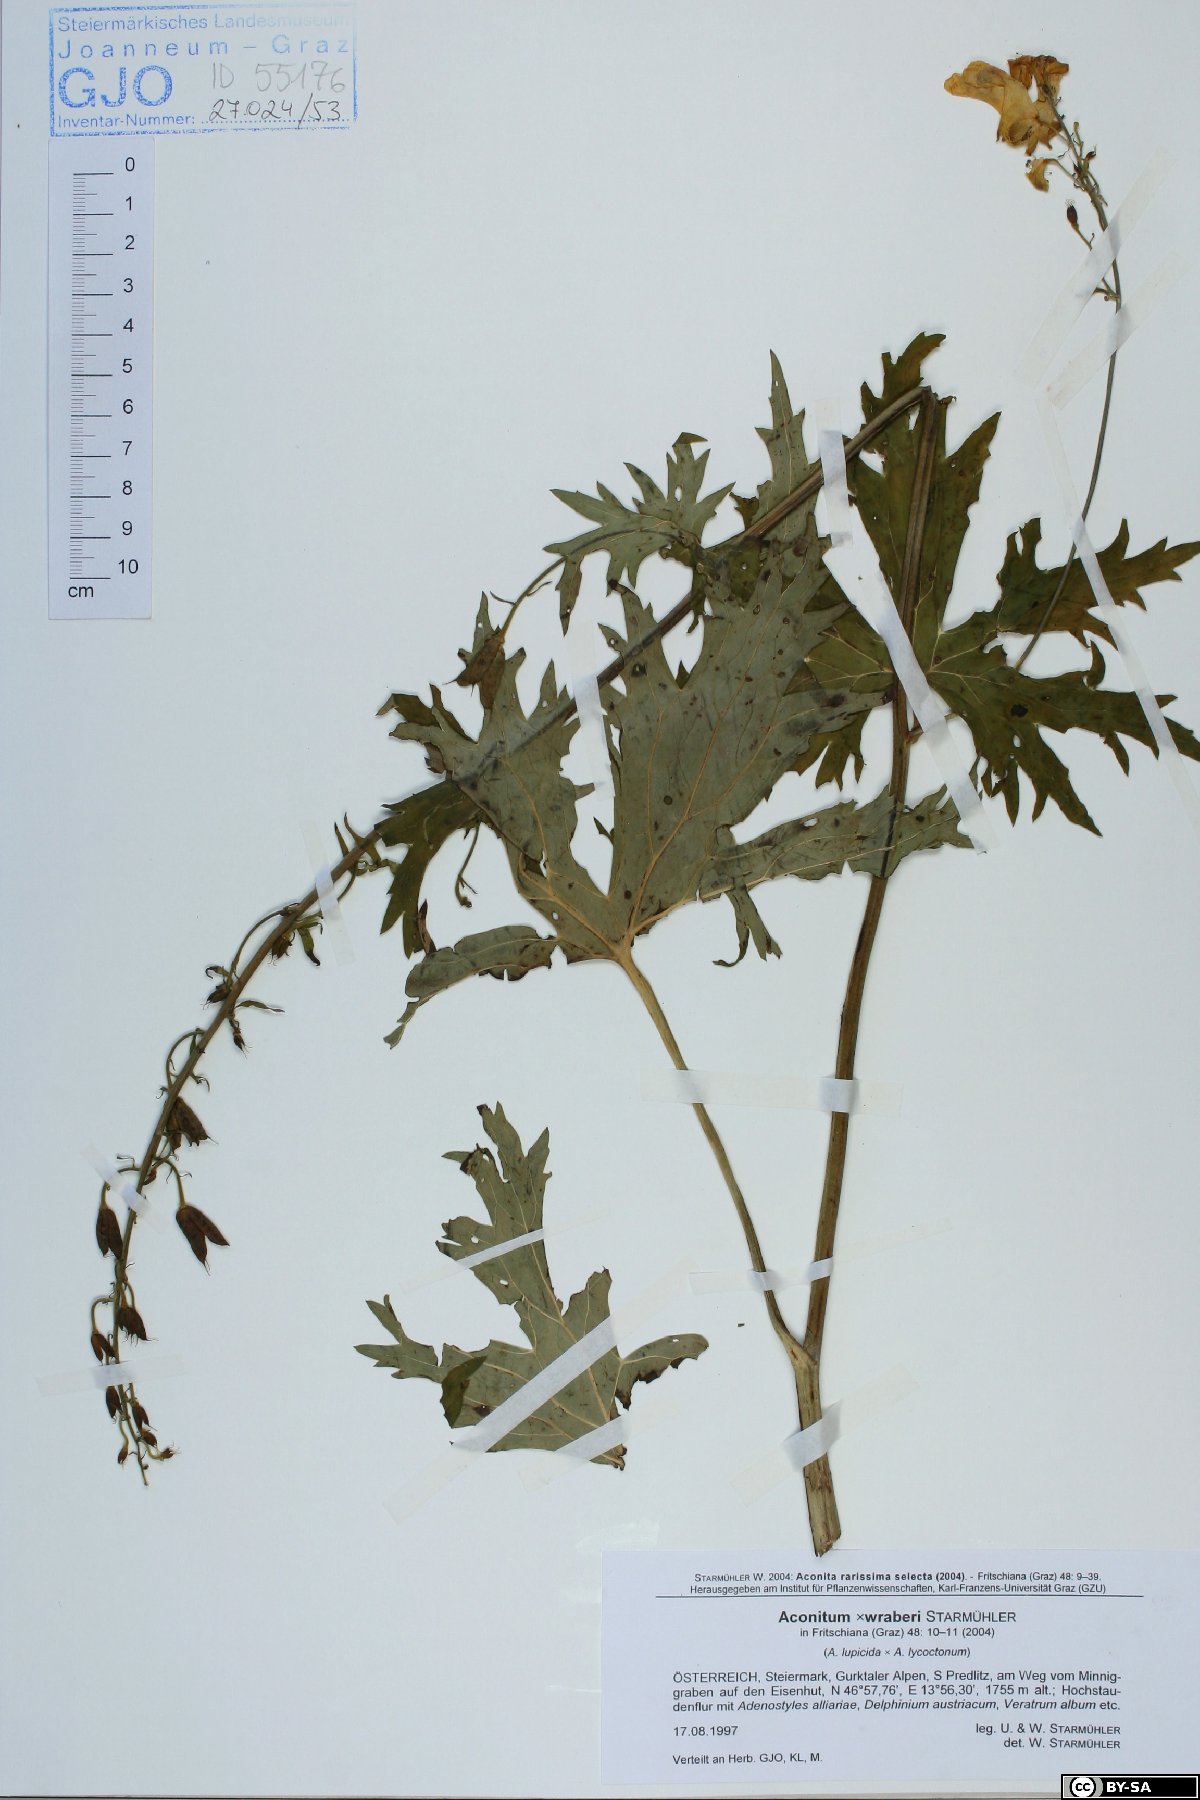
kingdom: Plantae
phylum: Tracheophyta
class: Magnoliopsida
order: Ranunculales
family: Ranunculaceae
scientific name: Ranunculaceae
